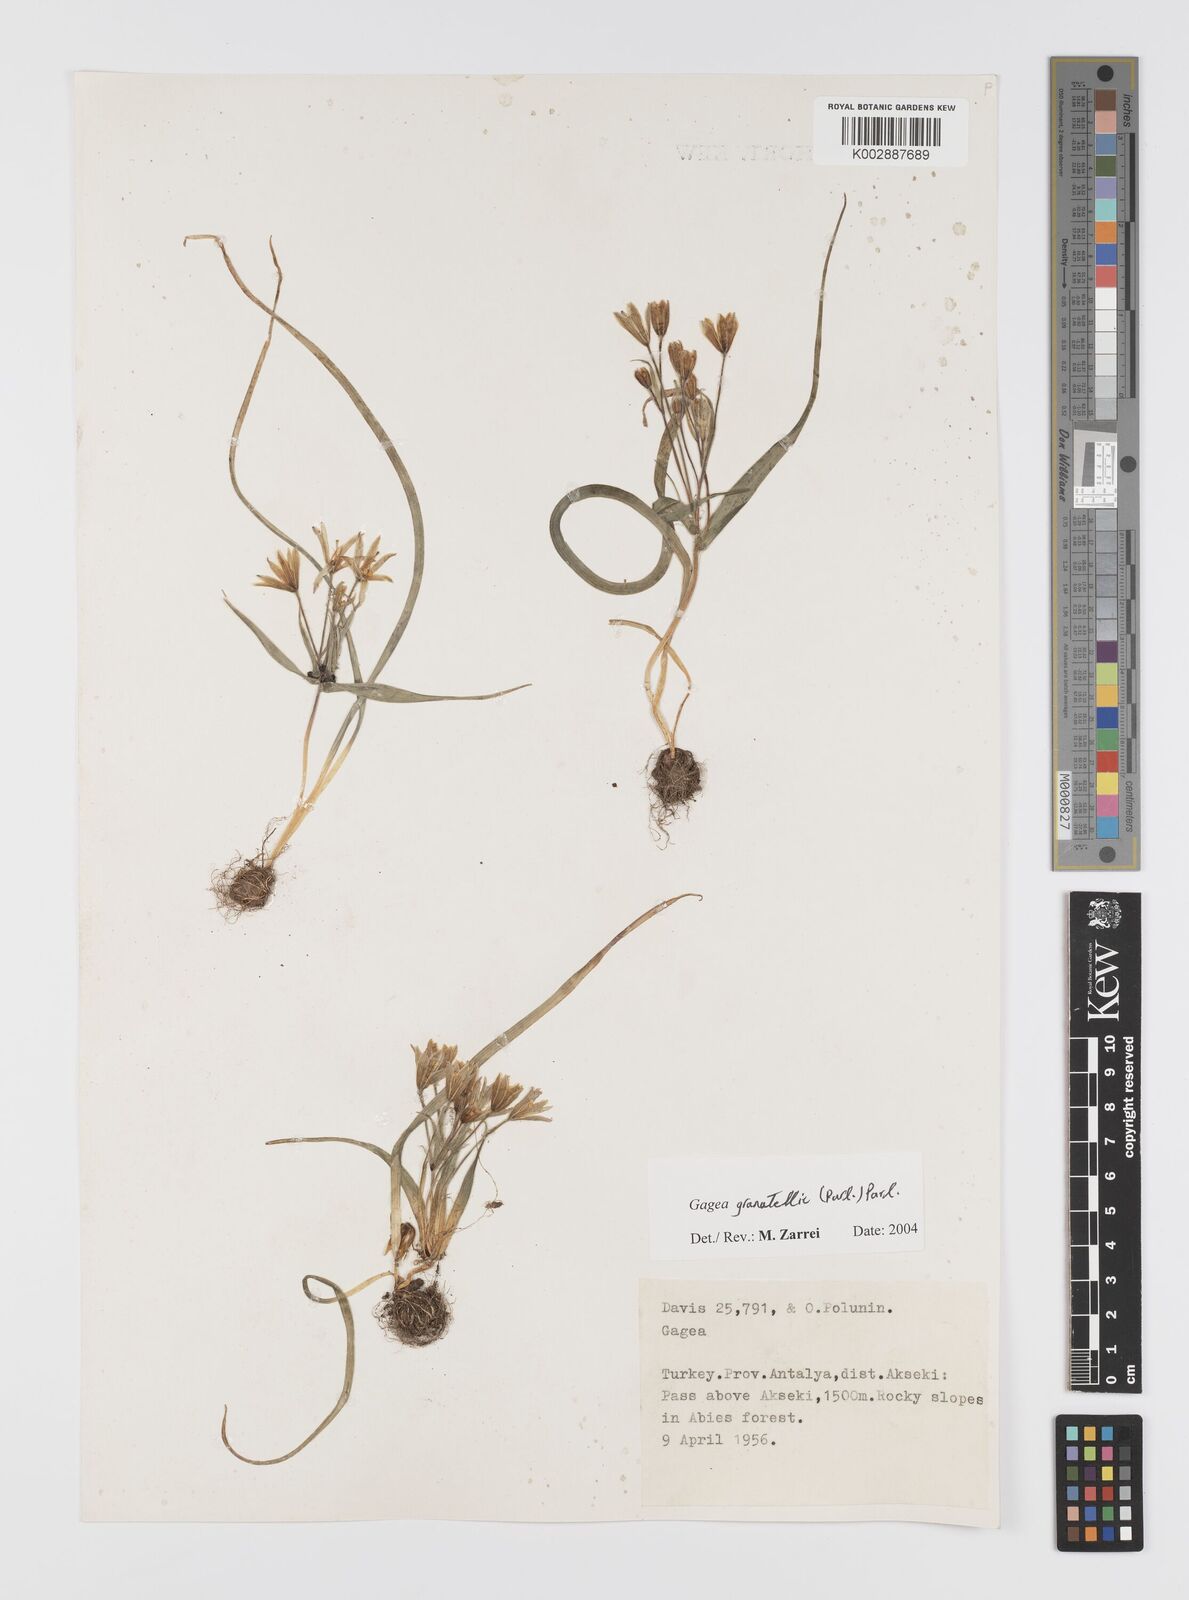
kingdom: Plantae
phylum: Tracheophyta
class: Liliopsida
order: Liliales
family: Liliaceae
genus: Gagea
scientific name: Gagea dubia
